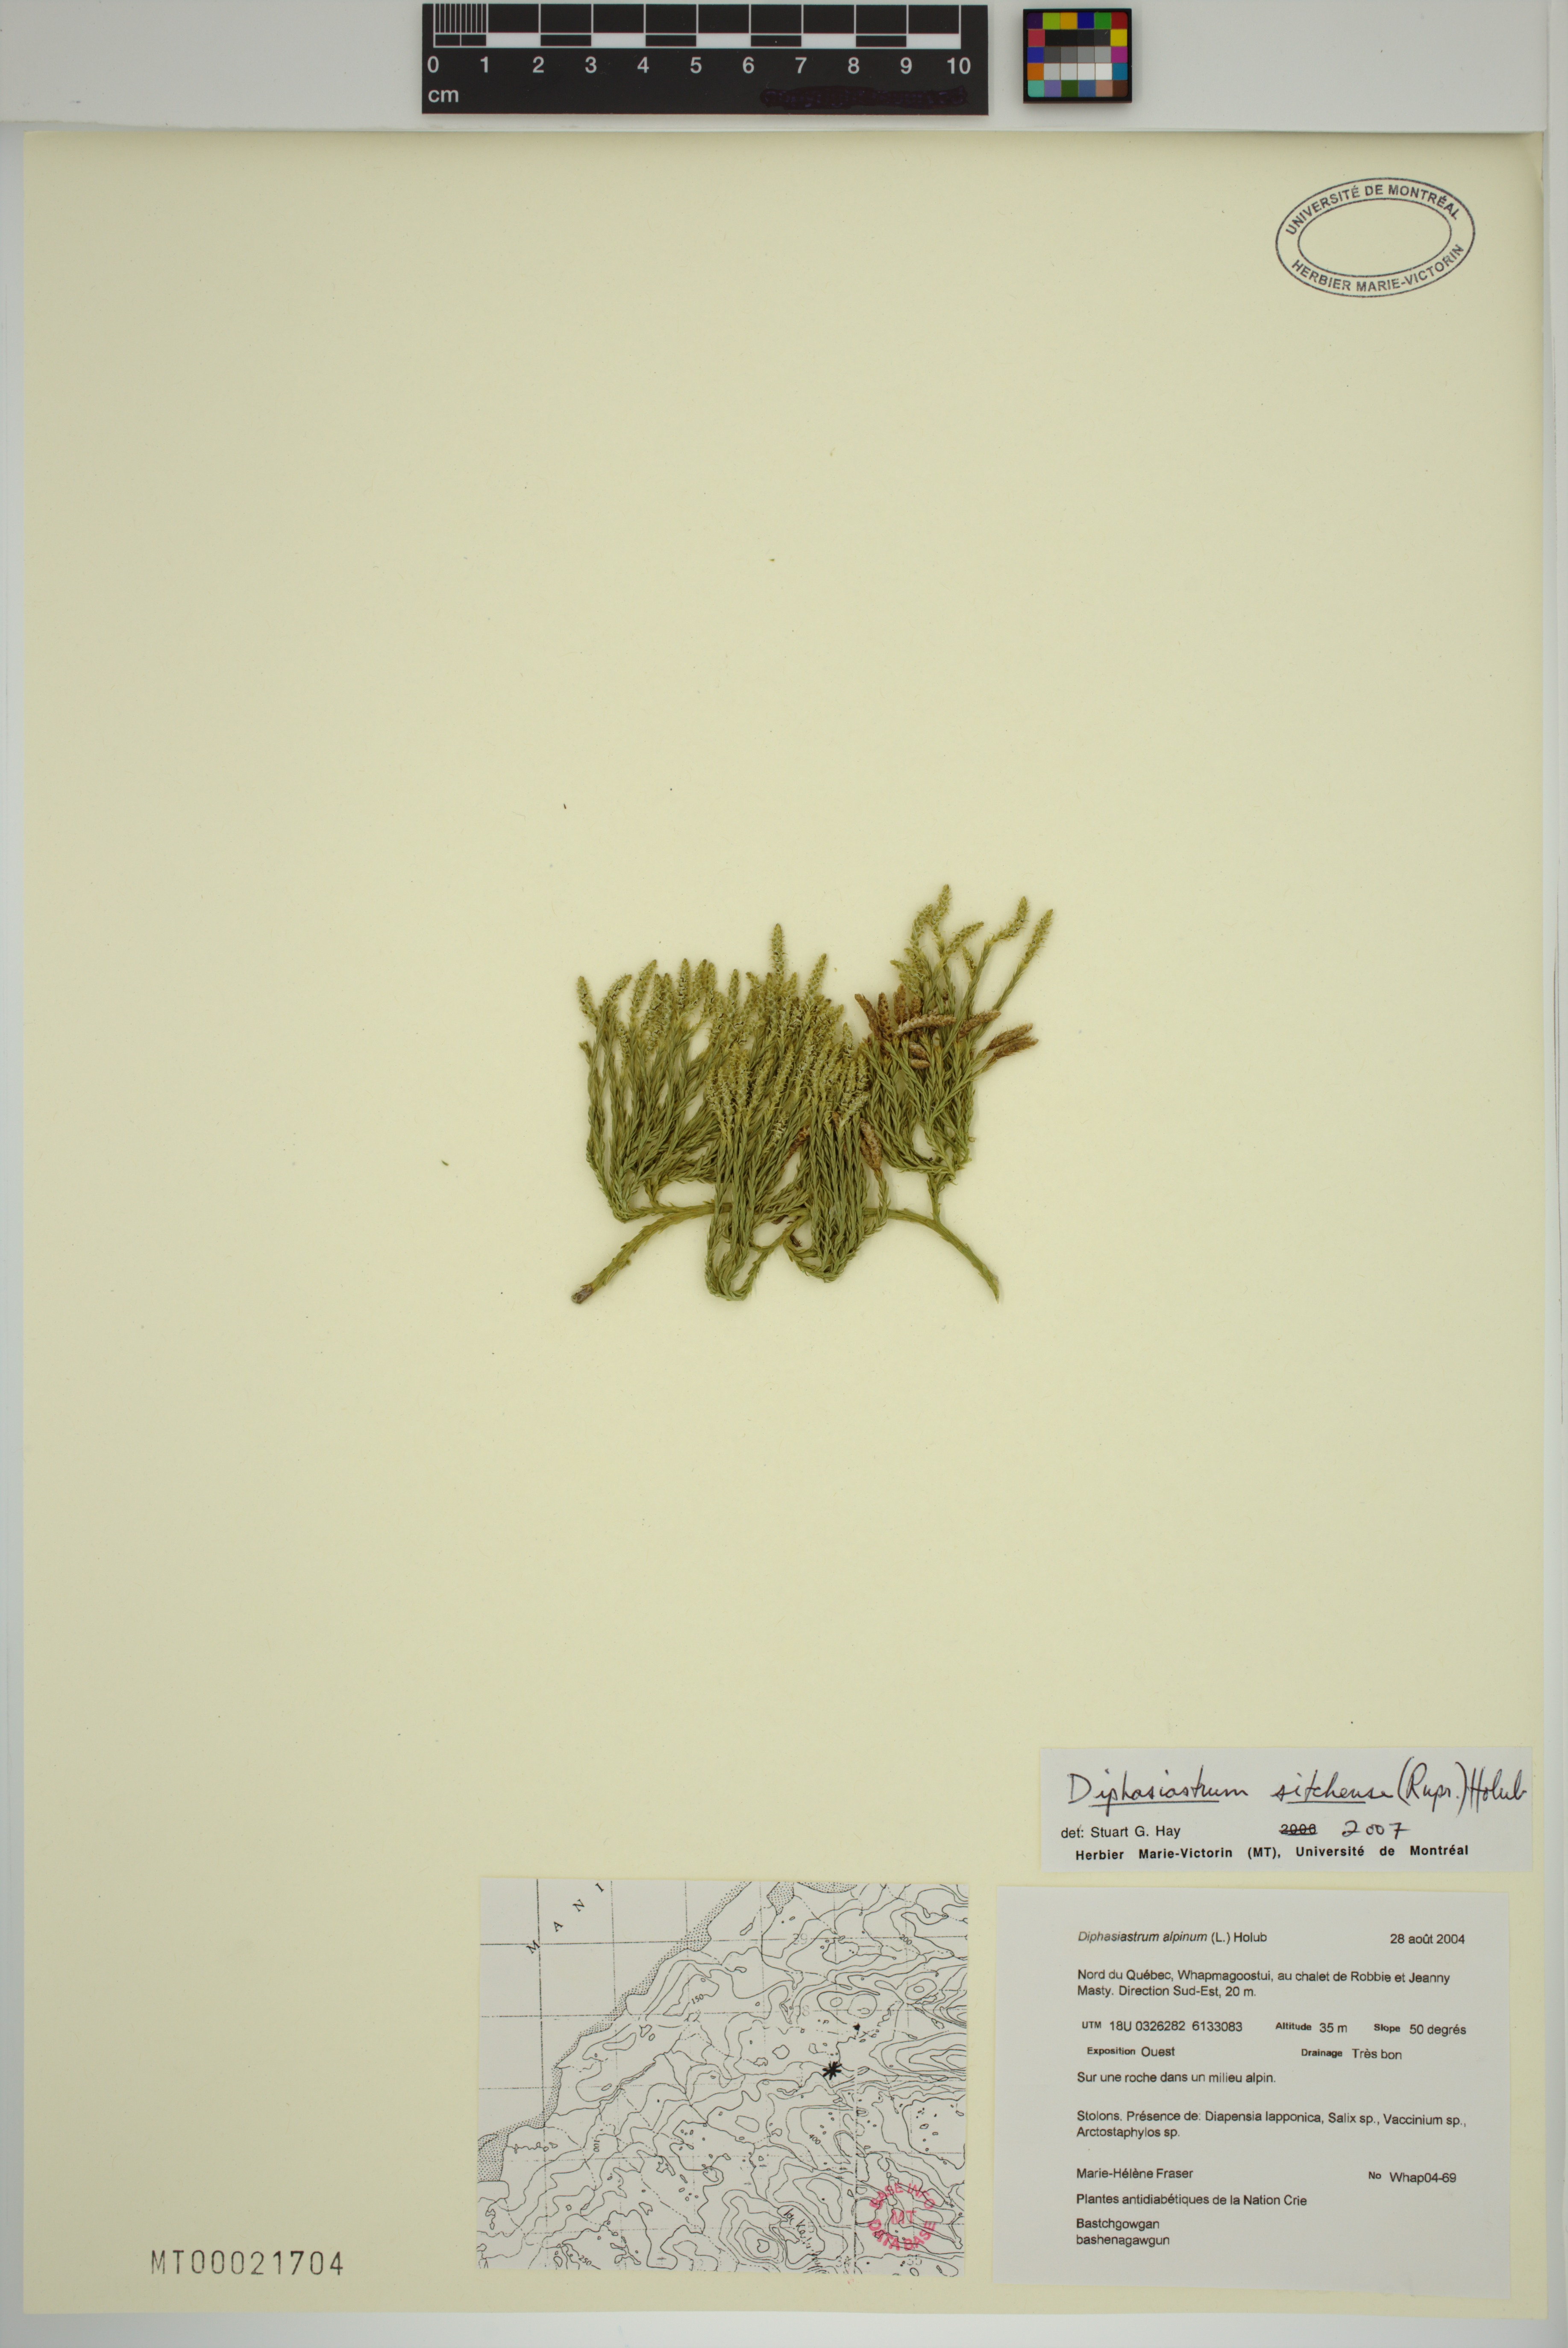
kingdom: Plantae
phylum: Tracheophyta
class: Lycopodiopsida
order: Lycopodiales
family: Lycopodiaceae
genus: Diphasiastrum
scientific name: Diphasiastrum sitchense
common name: Alaska clubmoss
